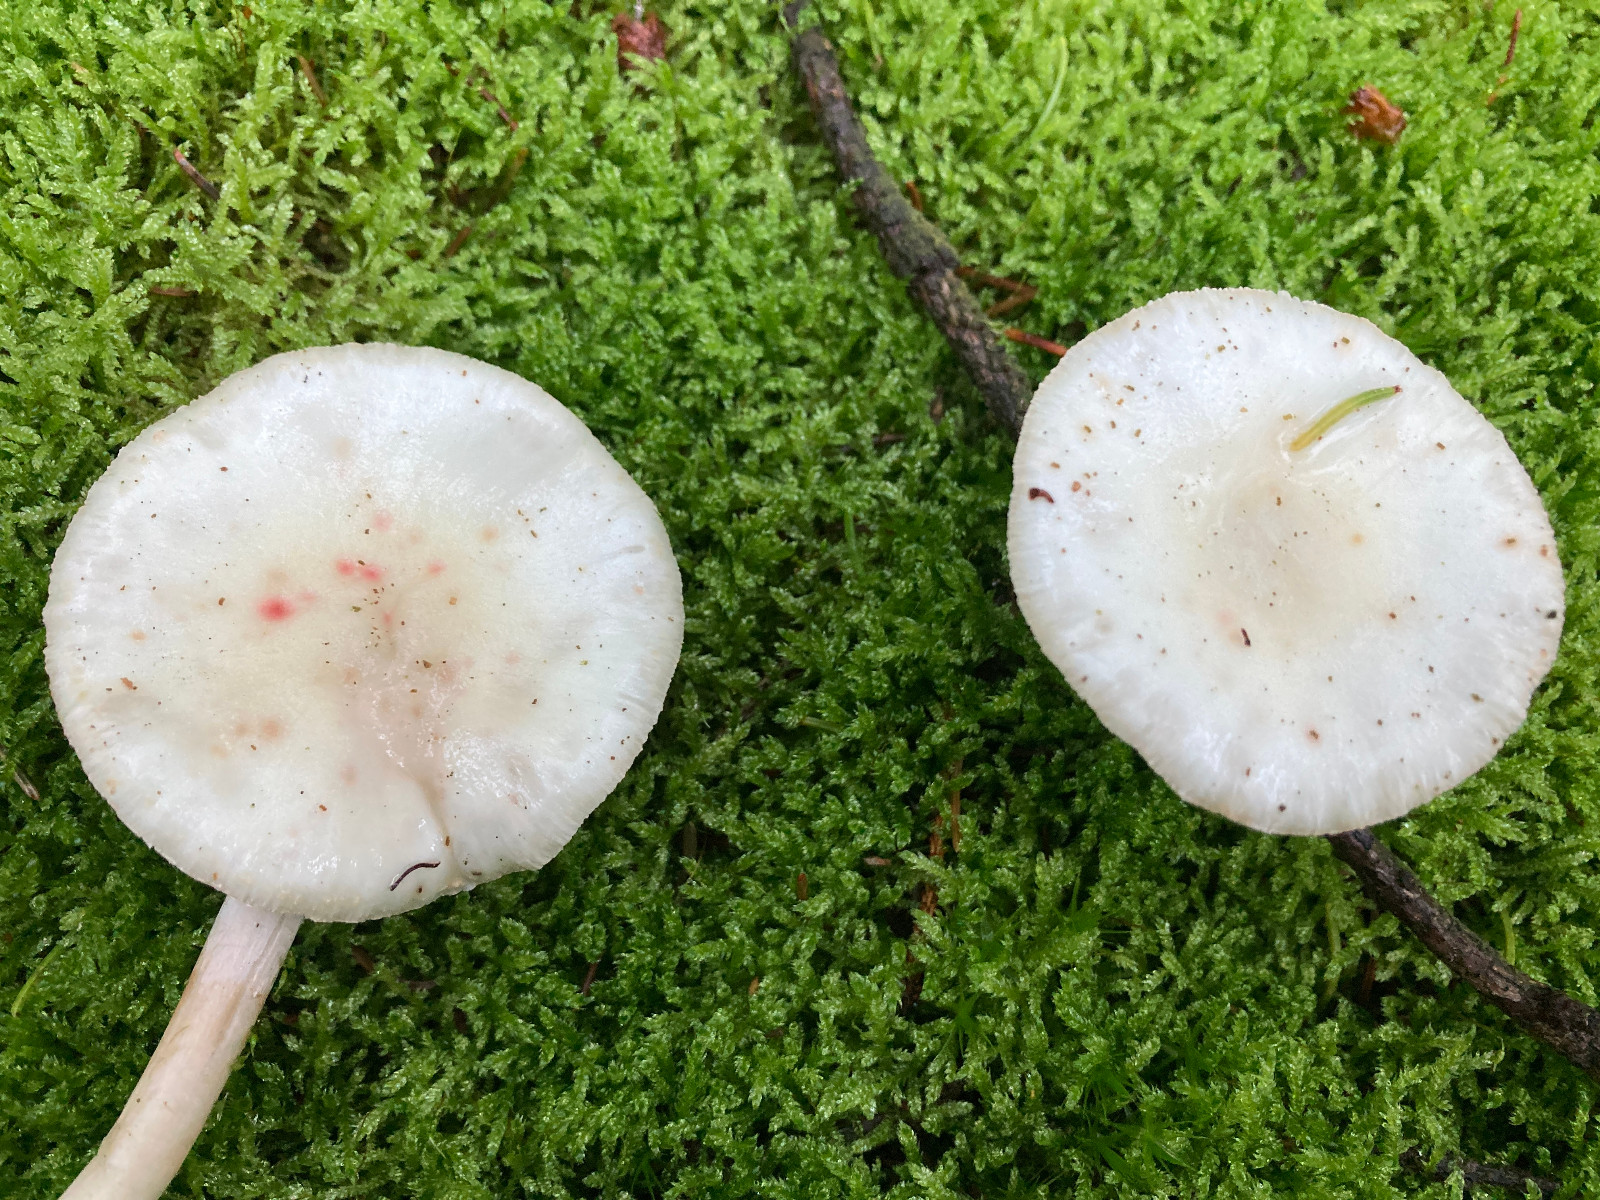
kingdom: Fungi
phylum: Basidiomycota
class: Agaricomycetes
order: Agaricales
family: Amanitaceae
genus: Amanita
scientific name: Amanita citrina
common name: kugleknoldet fluesvamp
